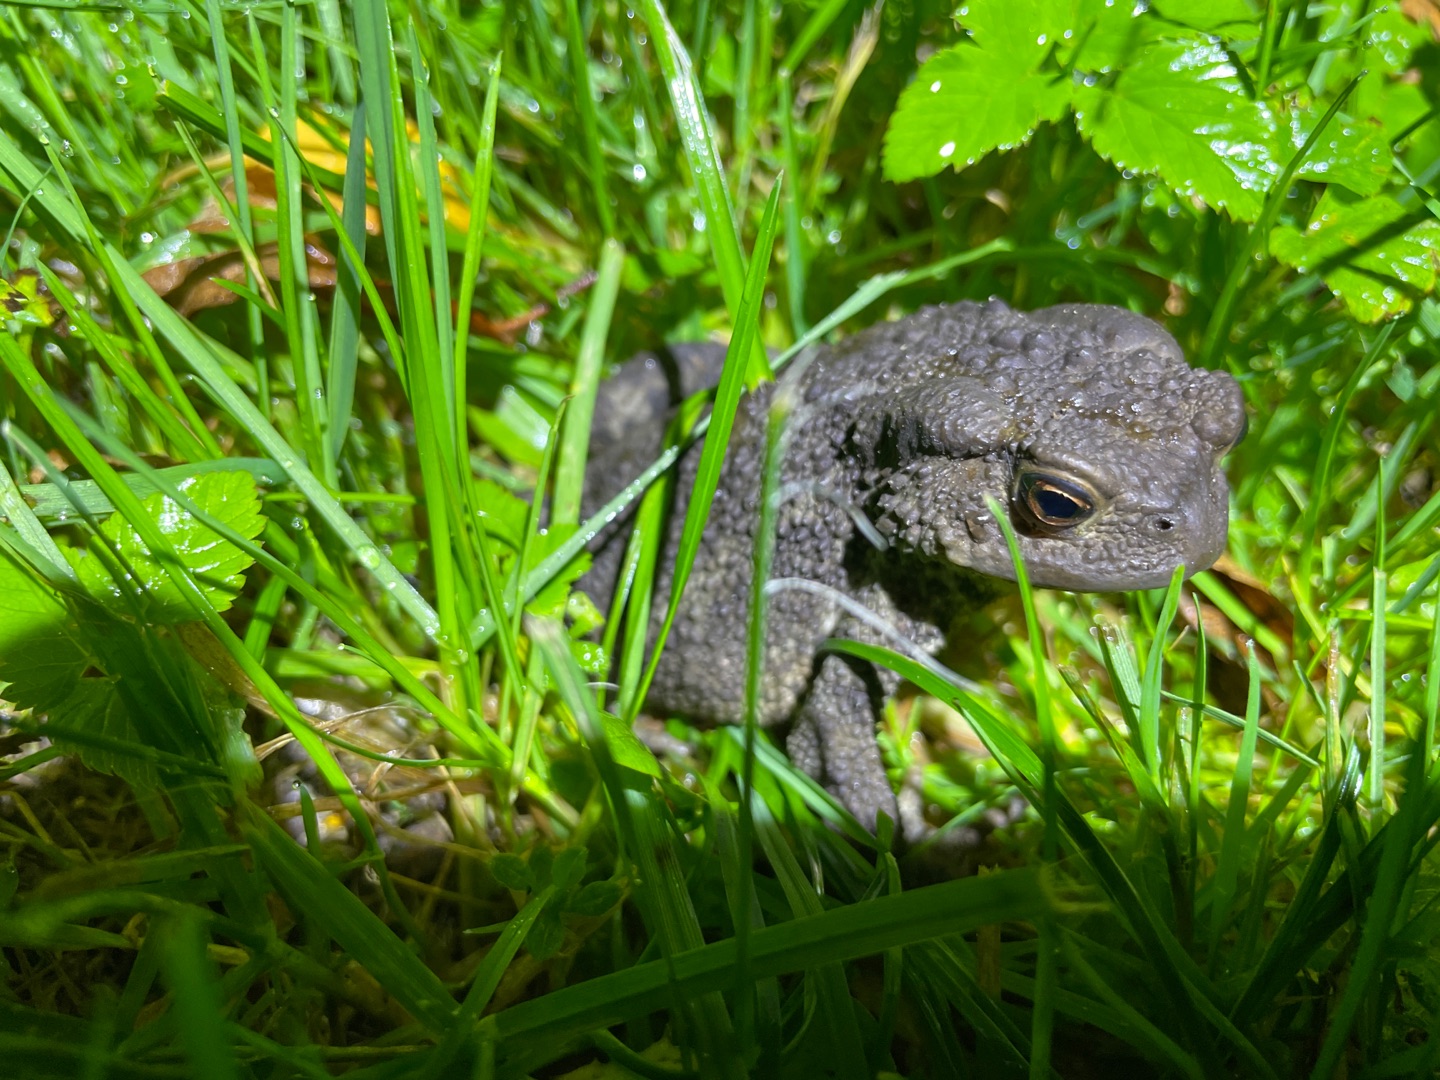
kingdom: Animalia
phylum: Chordata
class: Amphibia
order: Anura
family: Bufonidae
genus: Bufo
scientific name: Bufo bufo
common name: Skrubtudse
